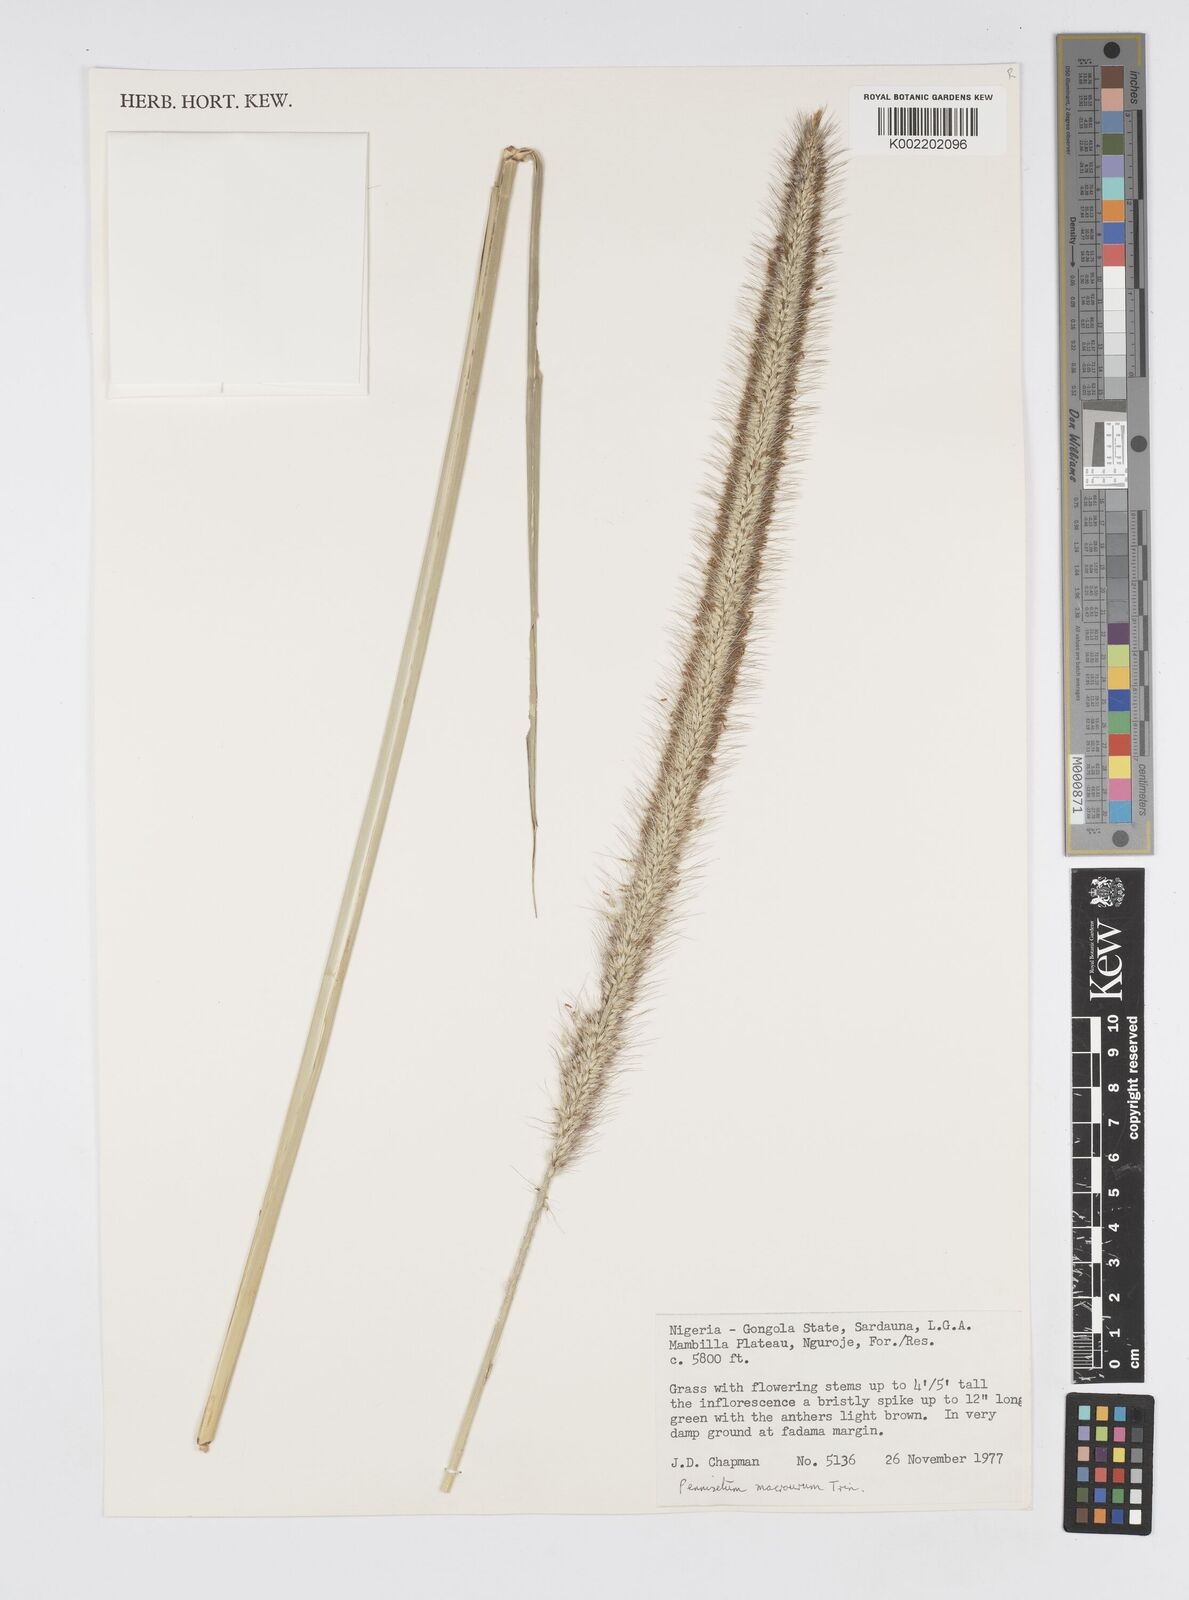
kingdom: Plantae
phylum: Tracheophyta
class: Liliopsida
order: Poales
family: Poaceae
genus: Cenchrus
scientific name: Cenchrus caudatus
